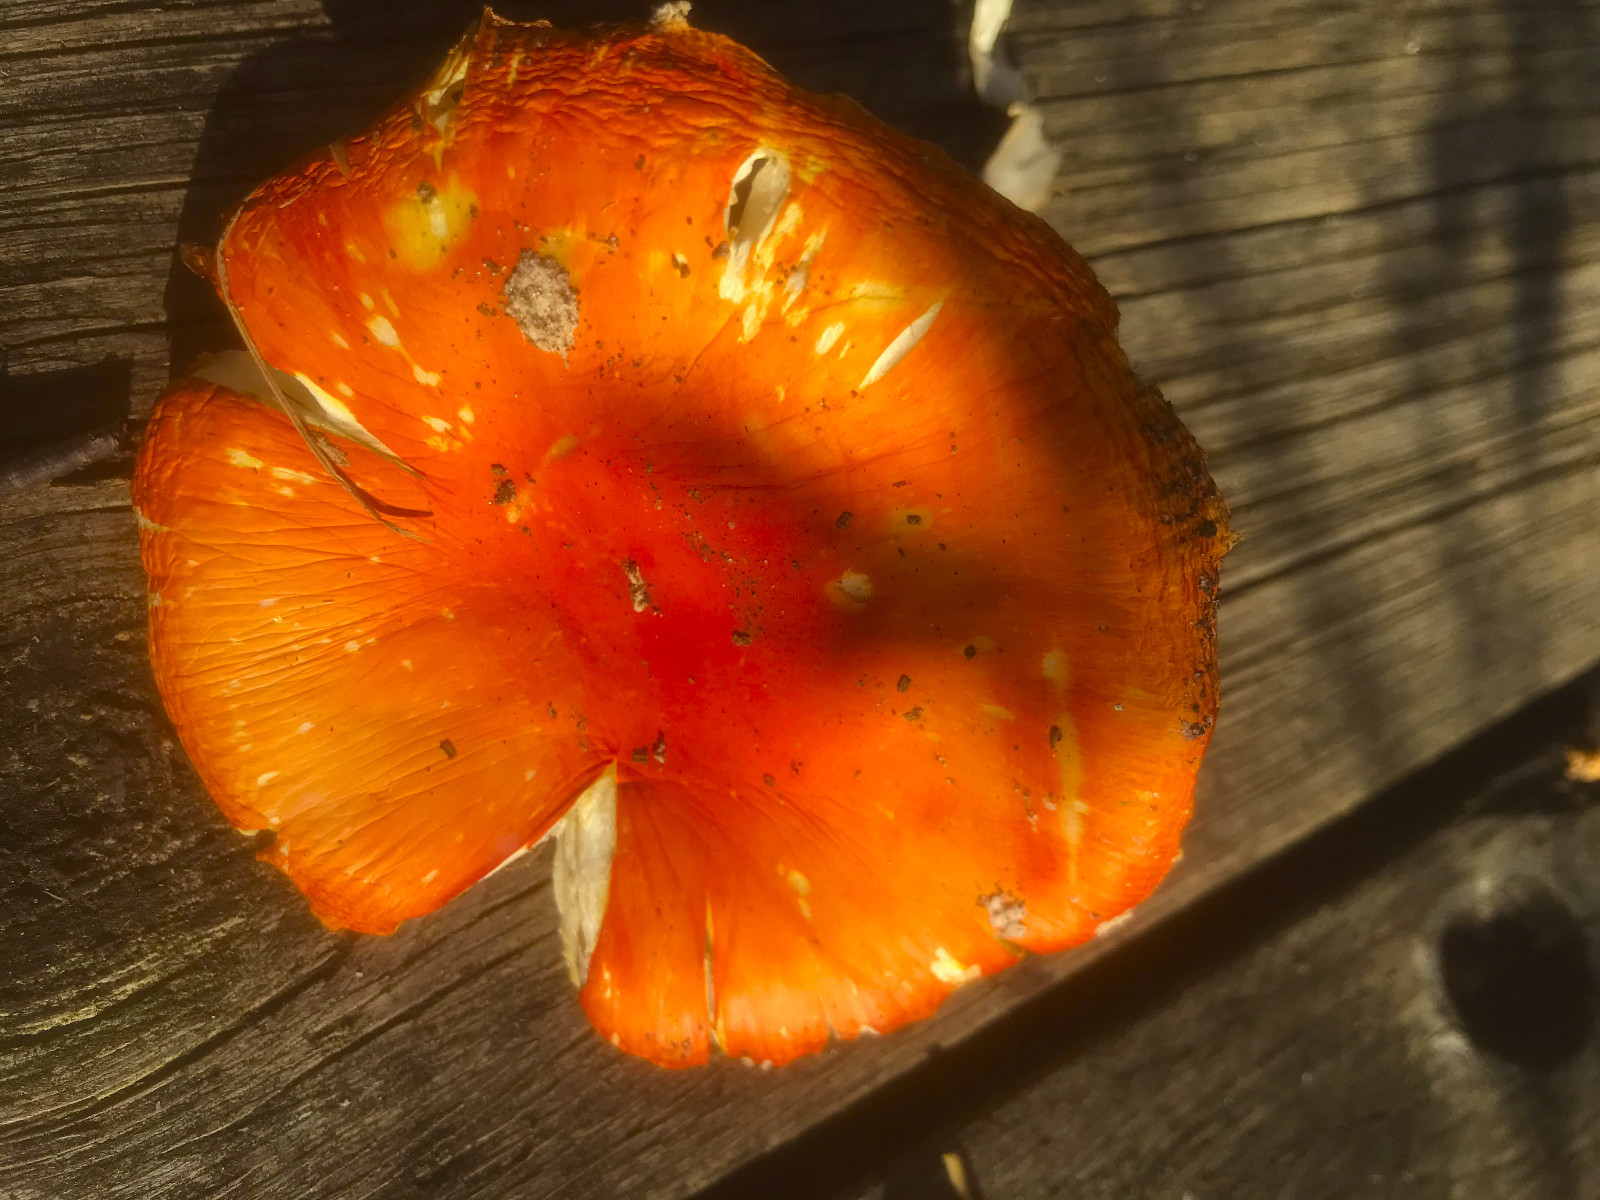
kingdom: Fungi
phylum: Basidiomycota
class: Agaricomycetes
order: Agaricales
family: Amanitaceae
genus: Amanita
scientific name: Amanita muscaria
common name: rød fluesvamp
